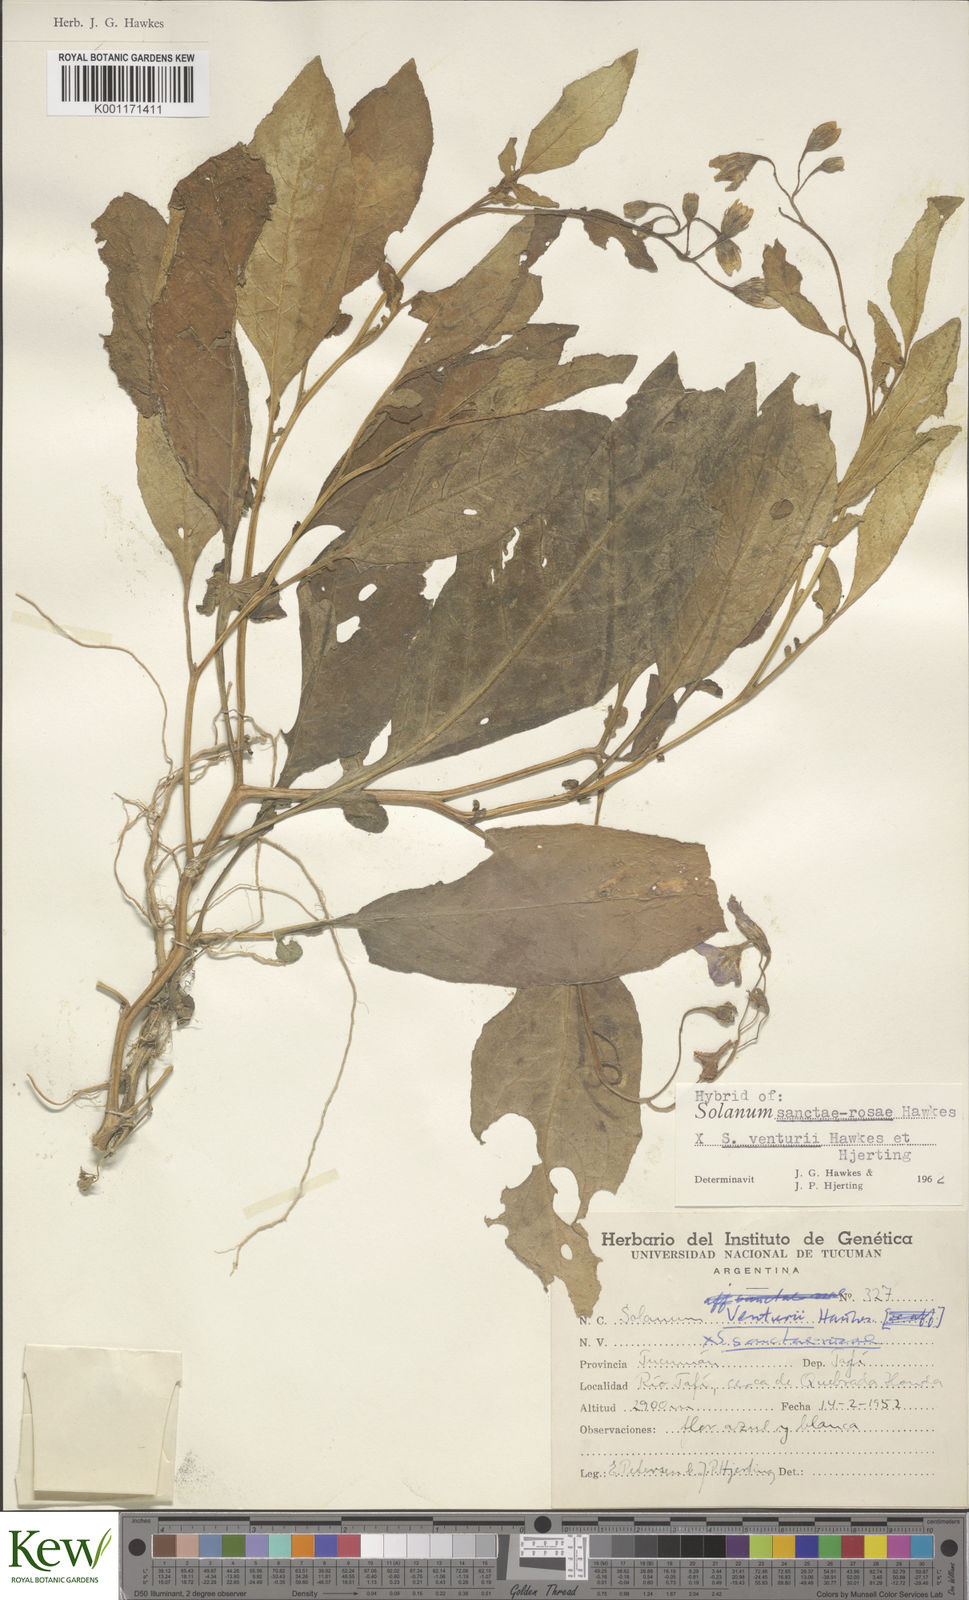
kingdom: Plantae
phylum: Tracheophyta
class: Magnoliopsida
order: Solanales
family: Solanaceae
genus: Solanum
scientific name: Solanum boliviense
